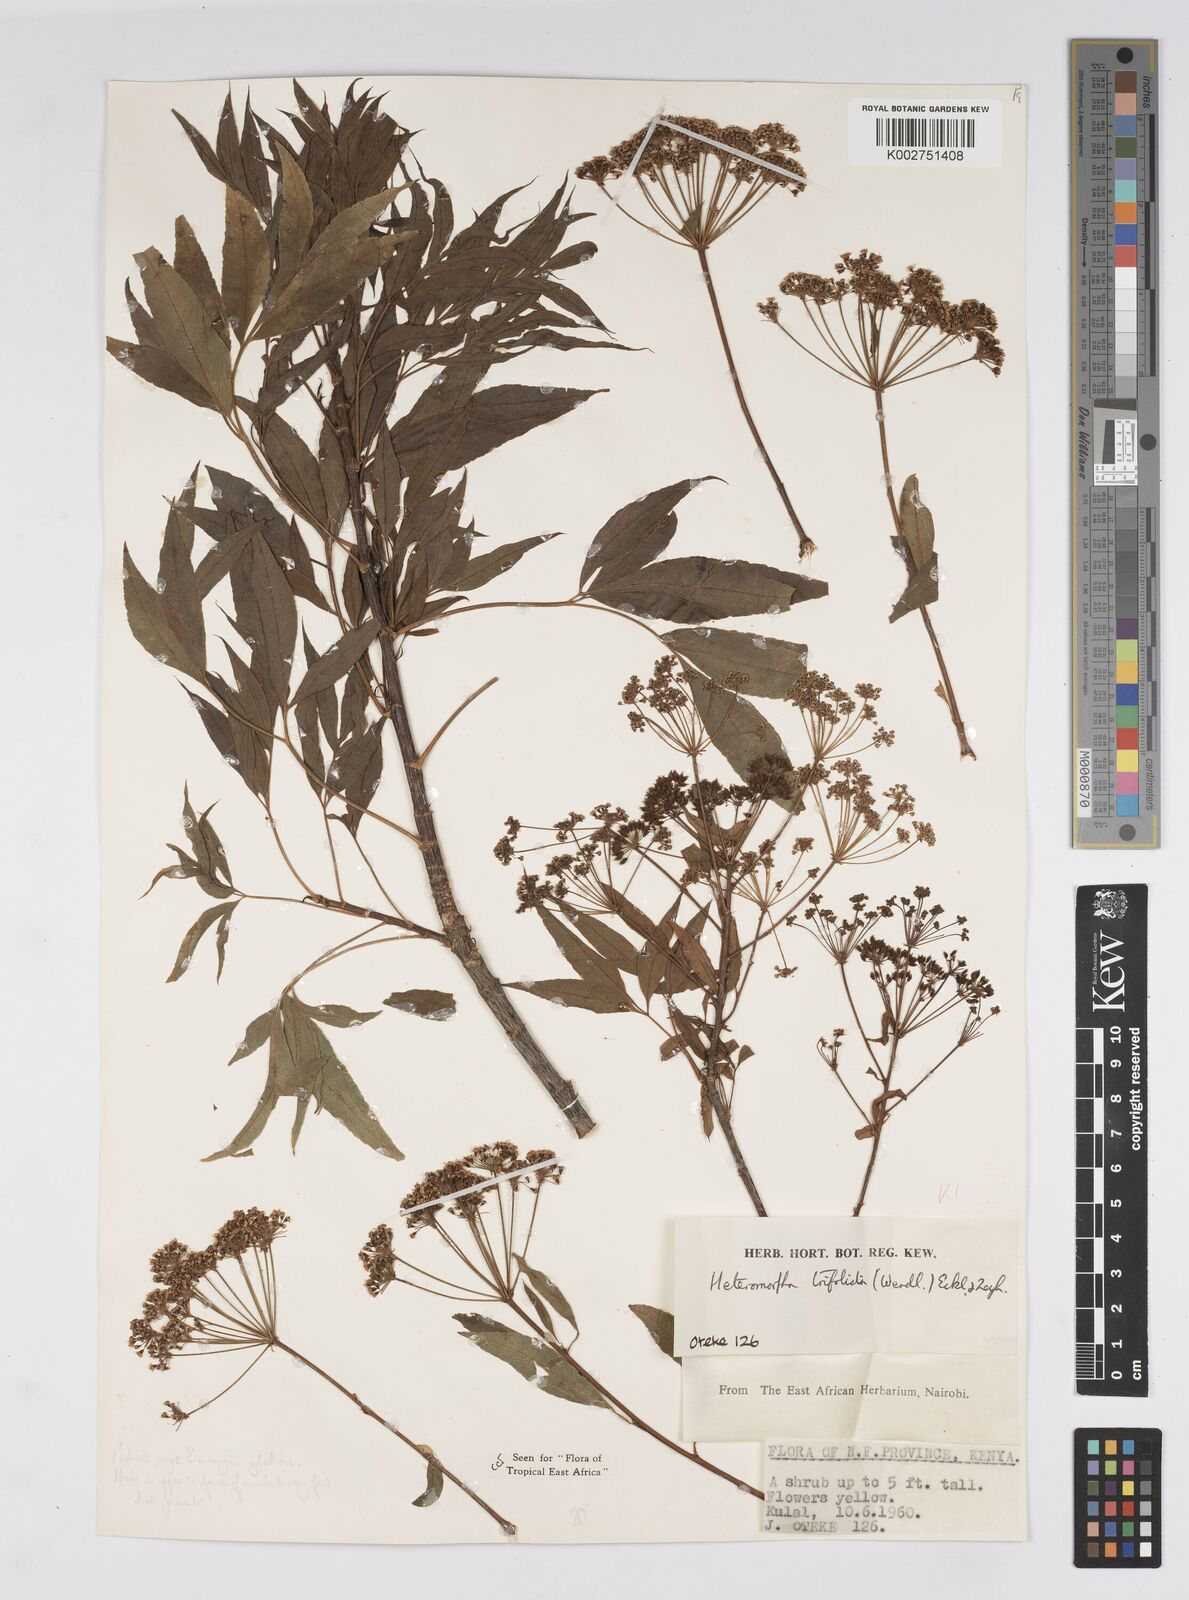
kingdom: Plantae
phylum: Tracheophyta
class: Magnoliopsida
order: Apiales
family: Apiaceae
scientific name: Apiaceae
